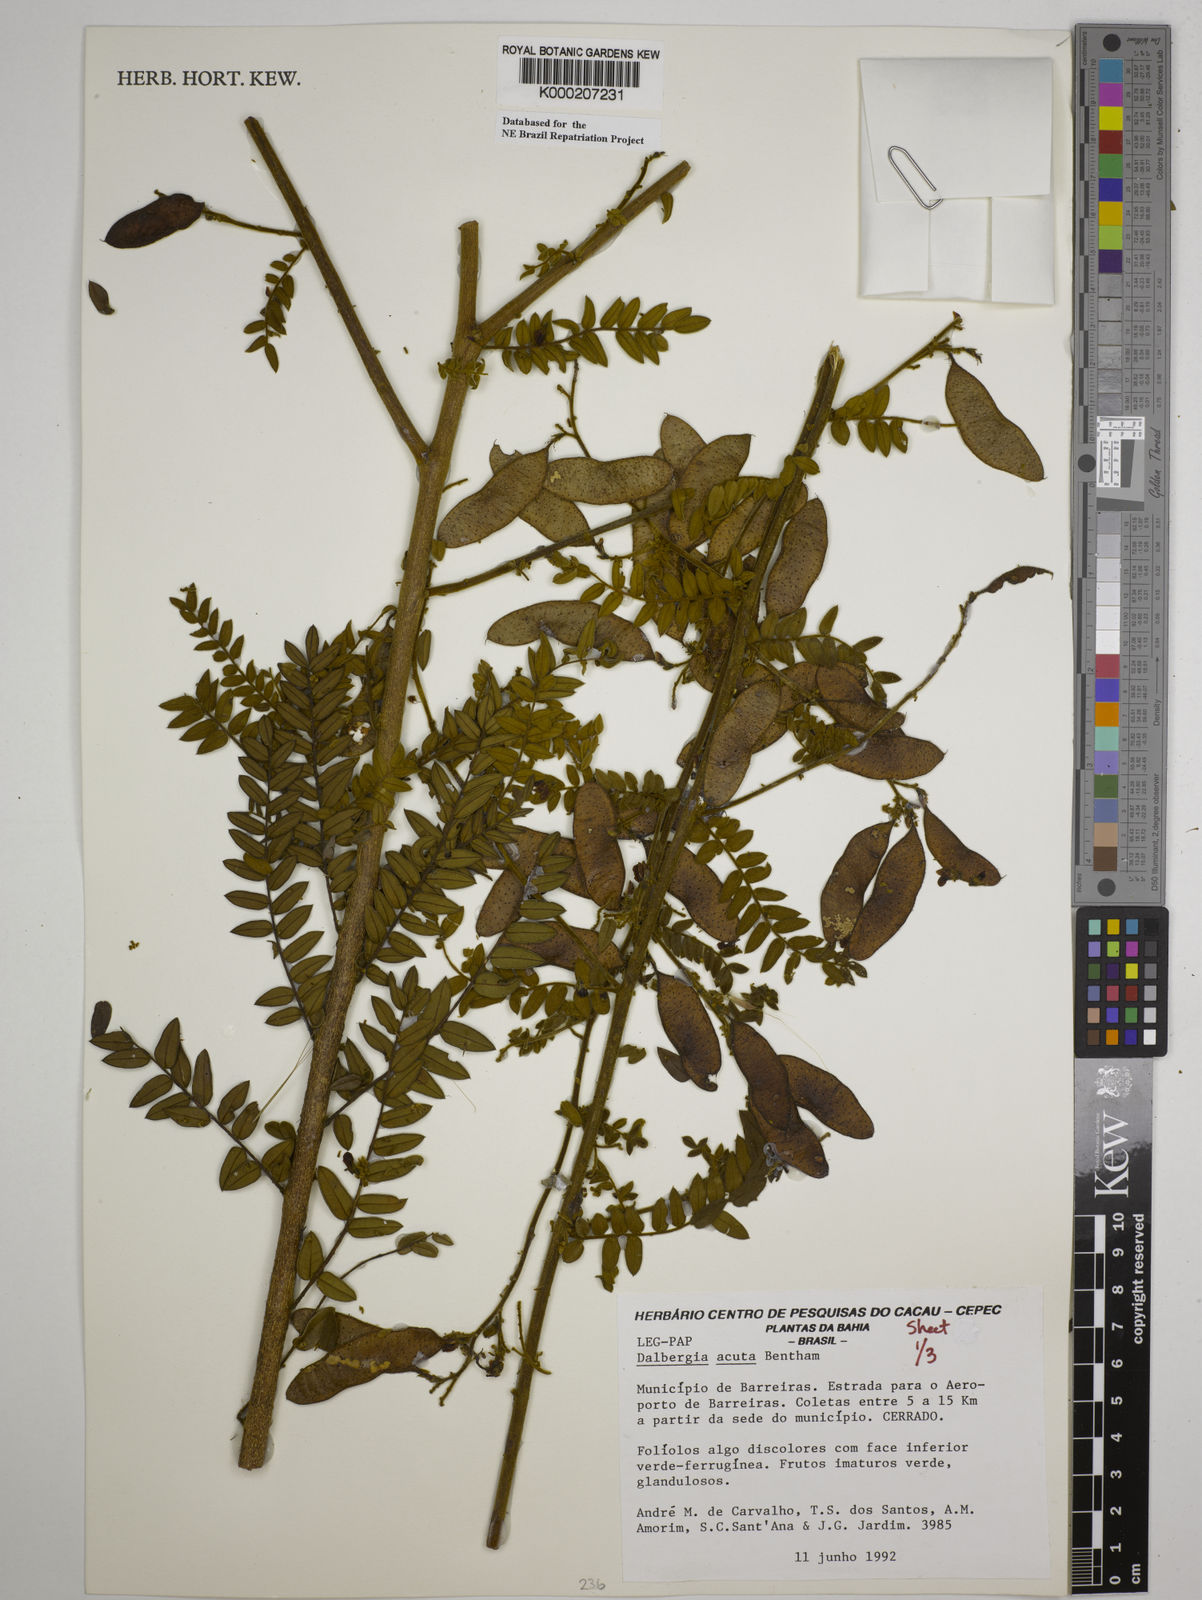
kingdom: Plantae
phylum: Tracheophyta
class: Magnoliopsida
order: Fabales
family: Fabaceae
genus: Dalbergia
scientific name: Dalbergia acuta
